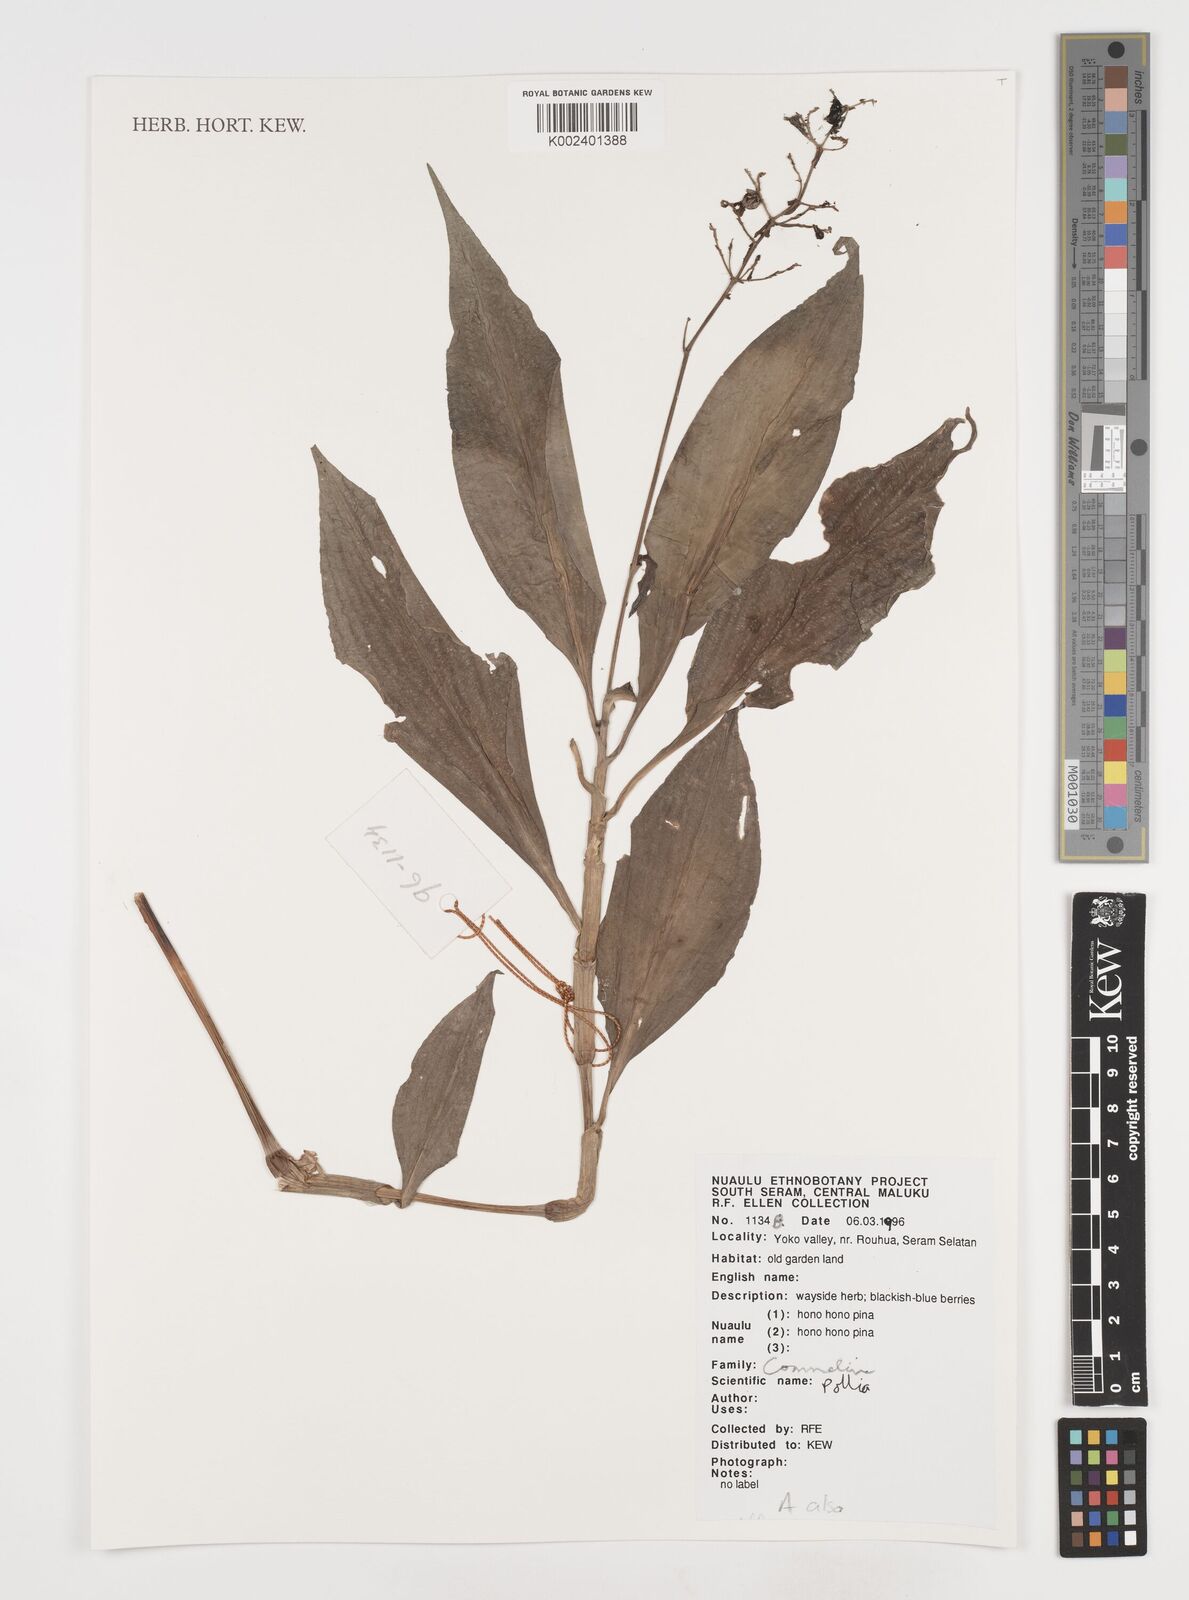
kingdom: Plantae
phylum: Tracheophyta
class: Liliopsida
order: Commelinales
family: Commelinaceae
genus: Pollia
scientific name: Pollia
